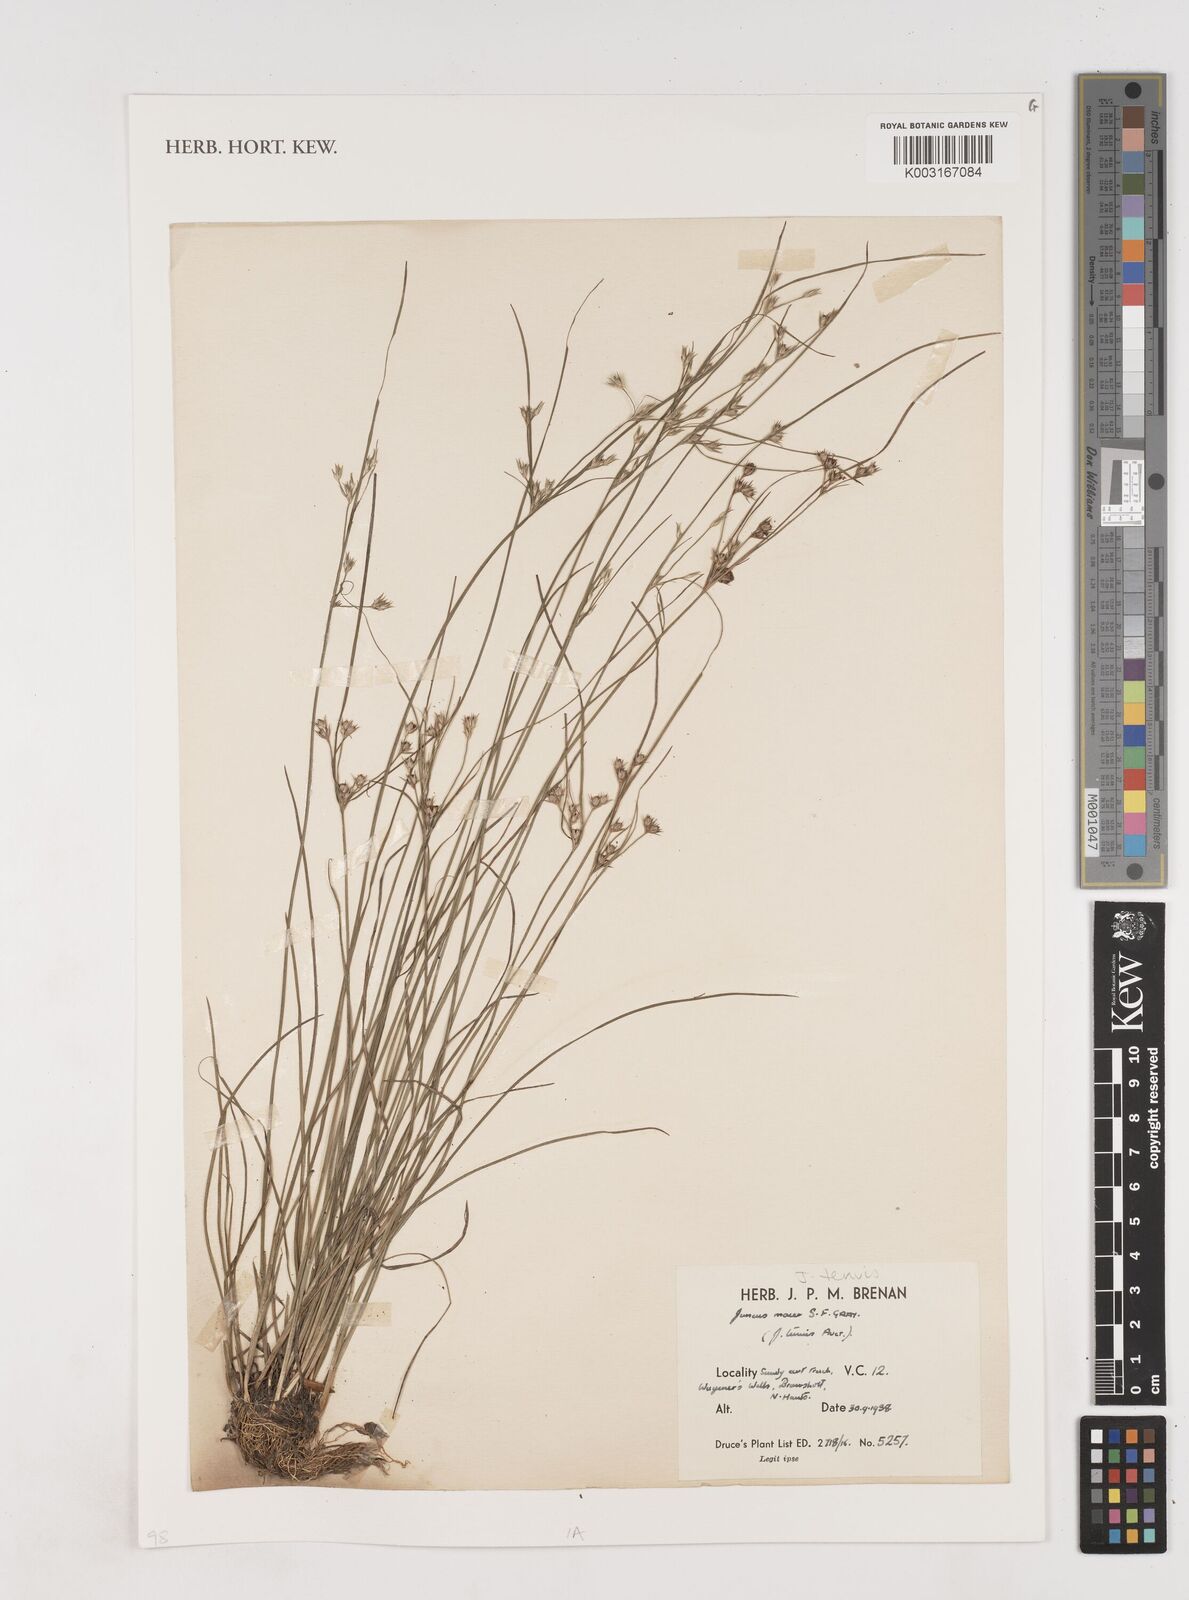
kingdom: Plantae
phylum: Tracheophyta
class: Liliopsida
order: Poales
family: Juncaceae
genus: Juncus
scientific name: Juncus tenuis
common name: Slender rush
